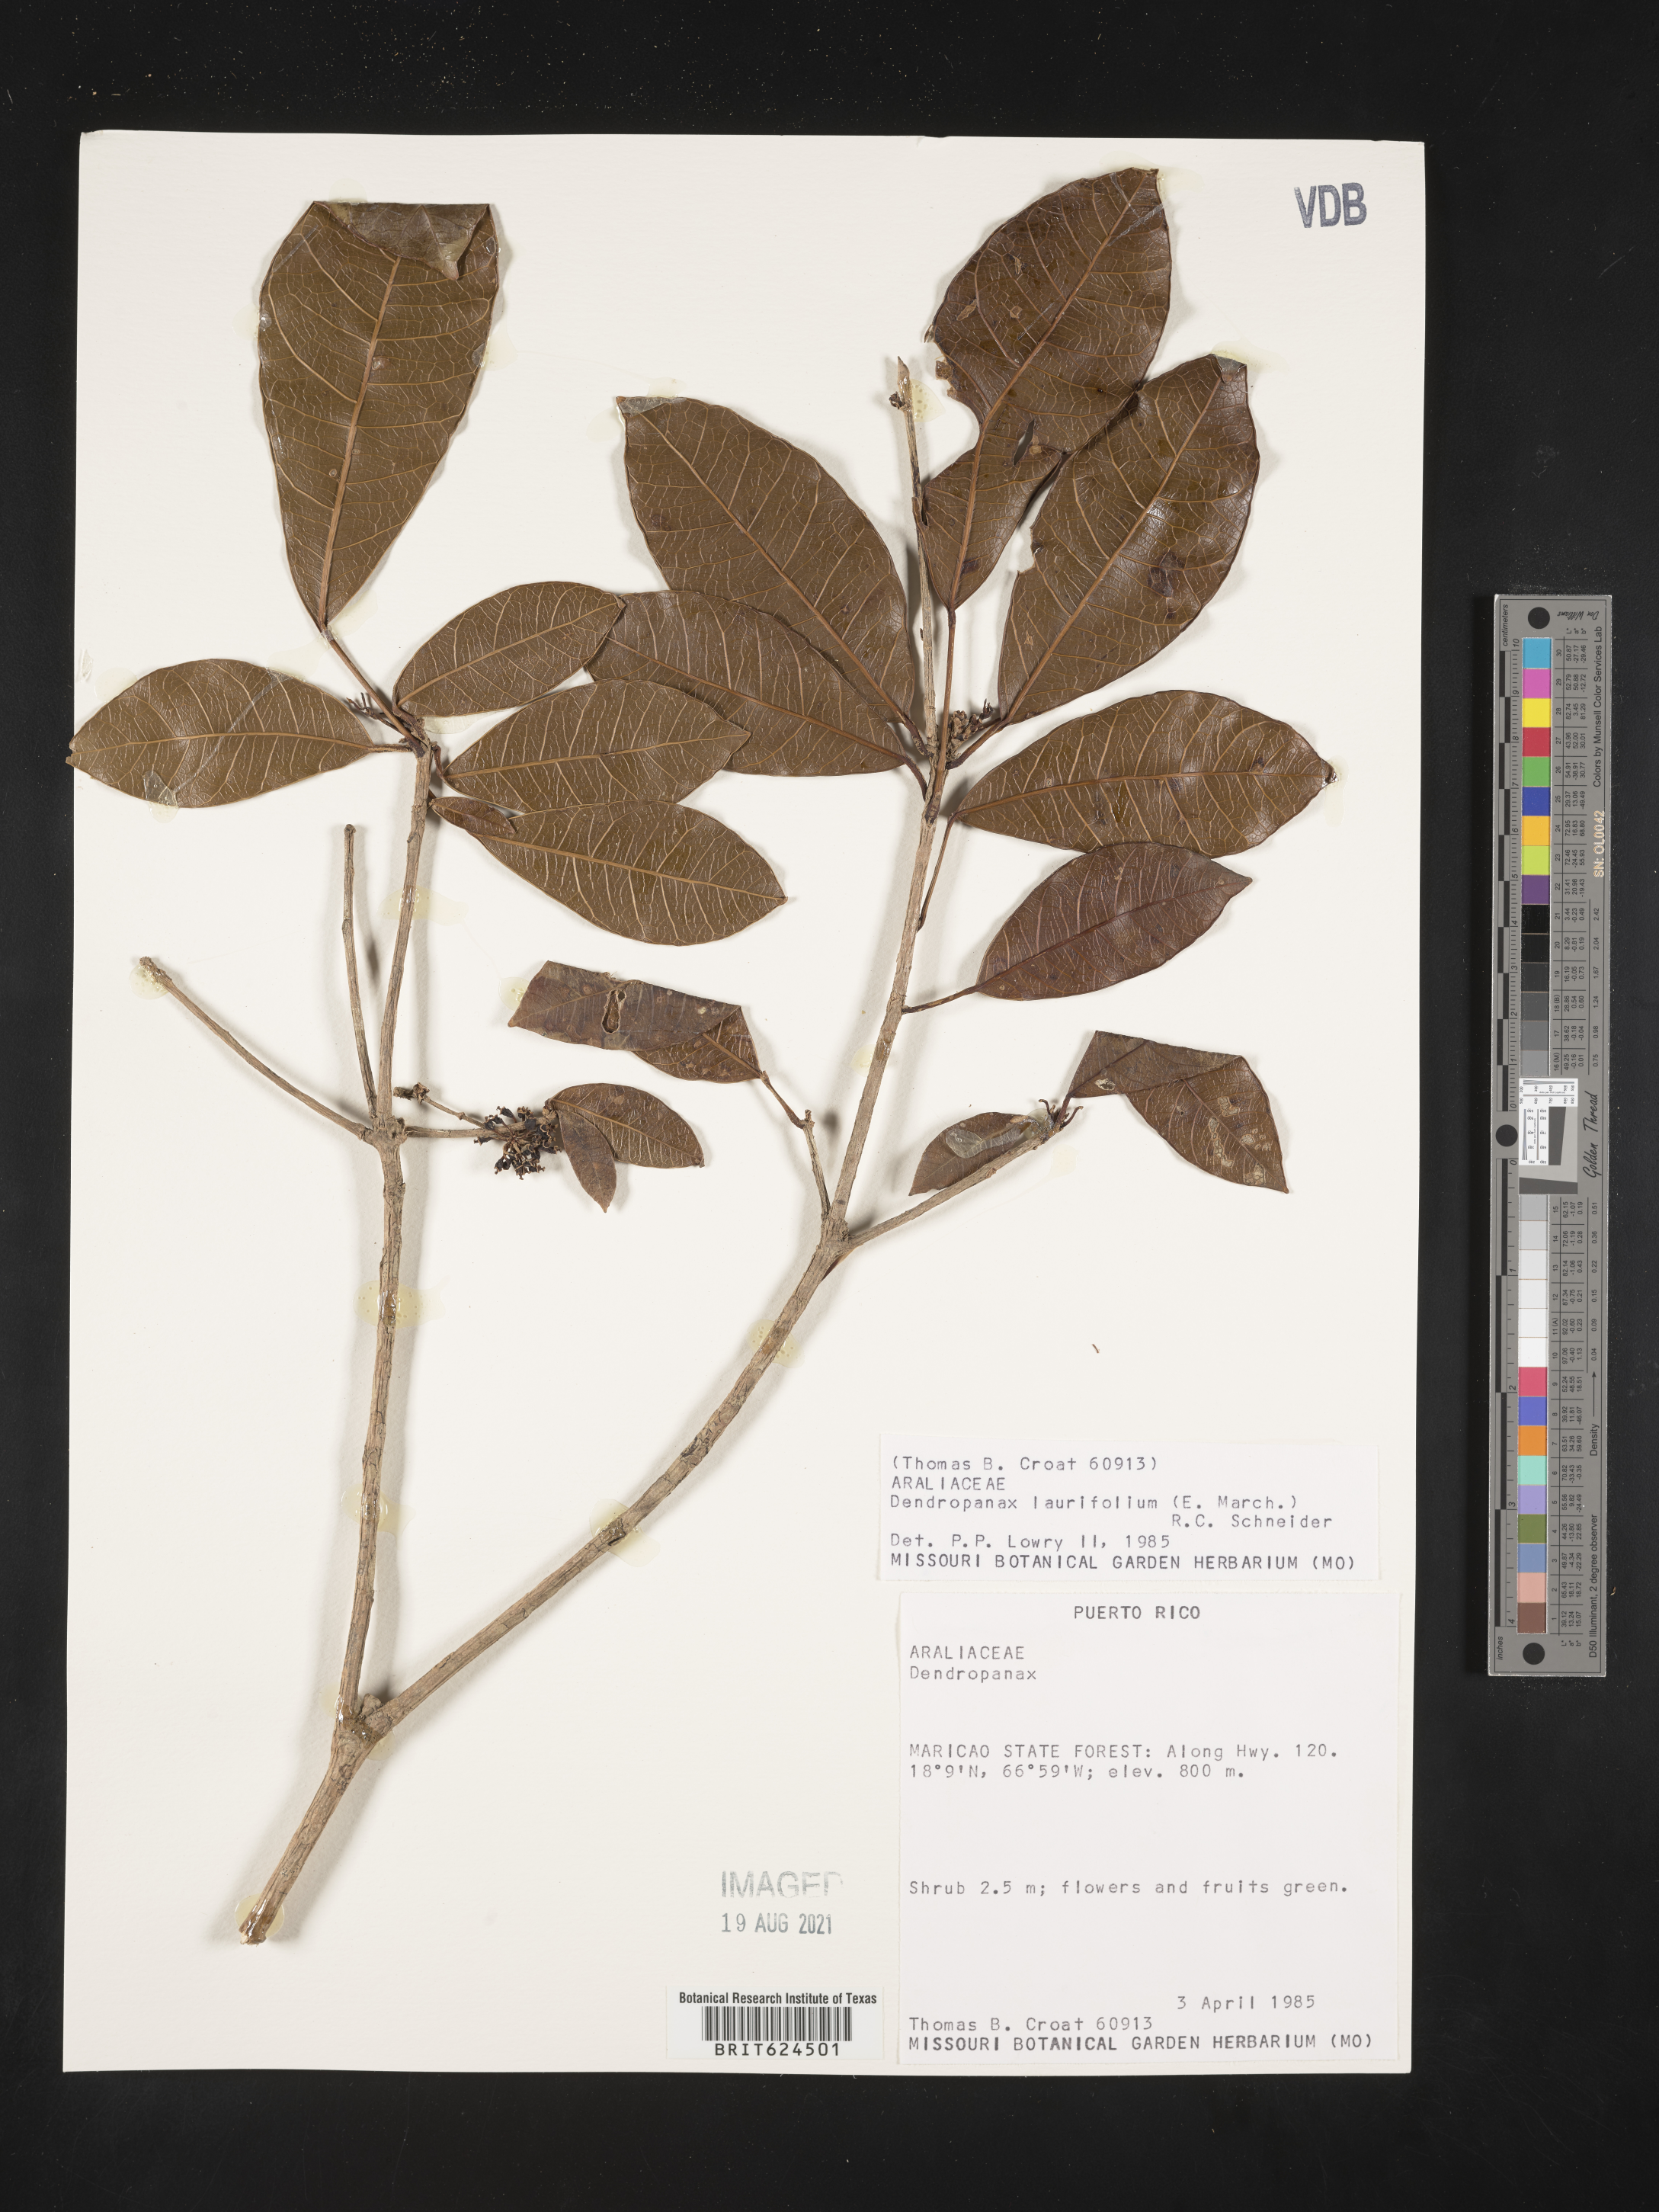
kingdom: Plantae
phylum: Tracheophyta
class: Magnoliopsida
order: Apiales
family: Araliaceae
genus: Dendropanax
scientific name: Dendropanax laurifolius
